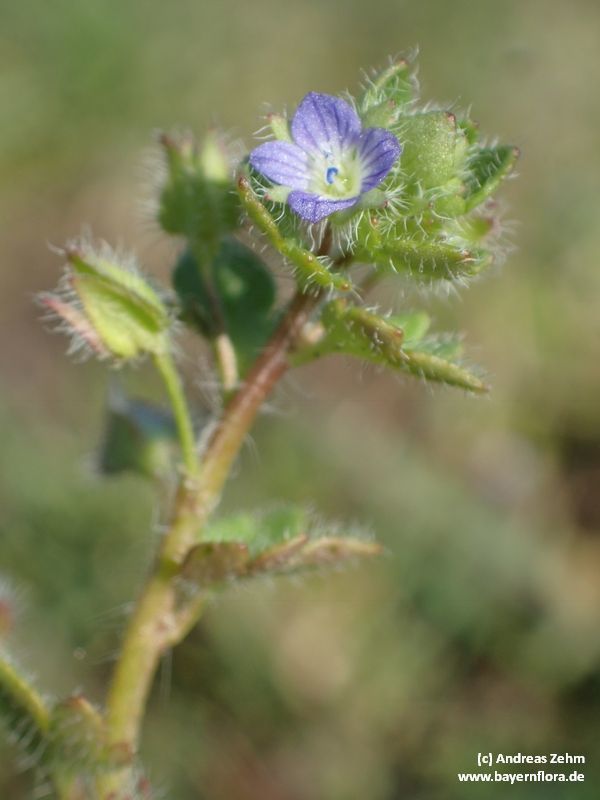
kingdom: Plantae
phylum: Tracheophyta
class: Magnoliopsida
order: Lamiales
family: Plantaginaceae
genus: Veronica
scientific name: Veronica sublobata
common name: False ivy-leaved speedwell
